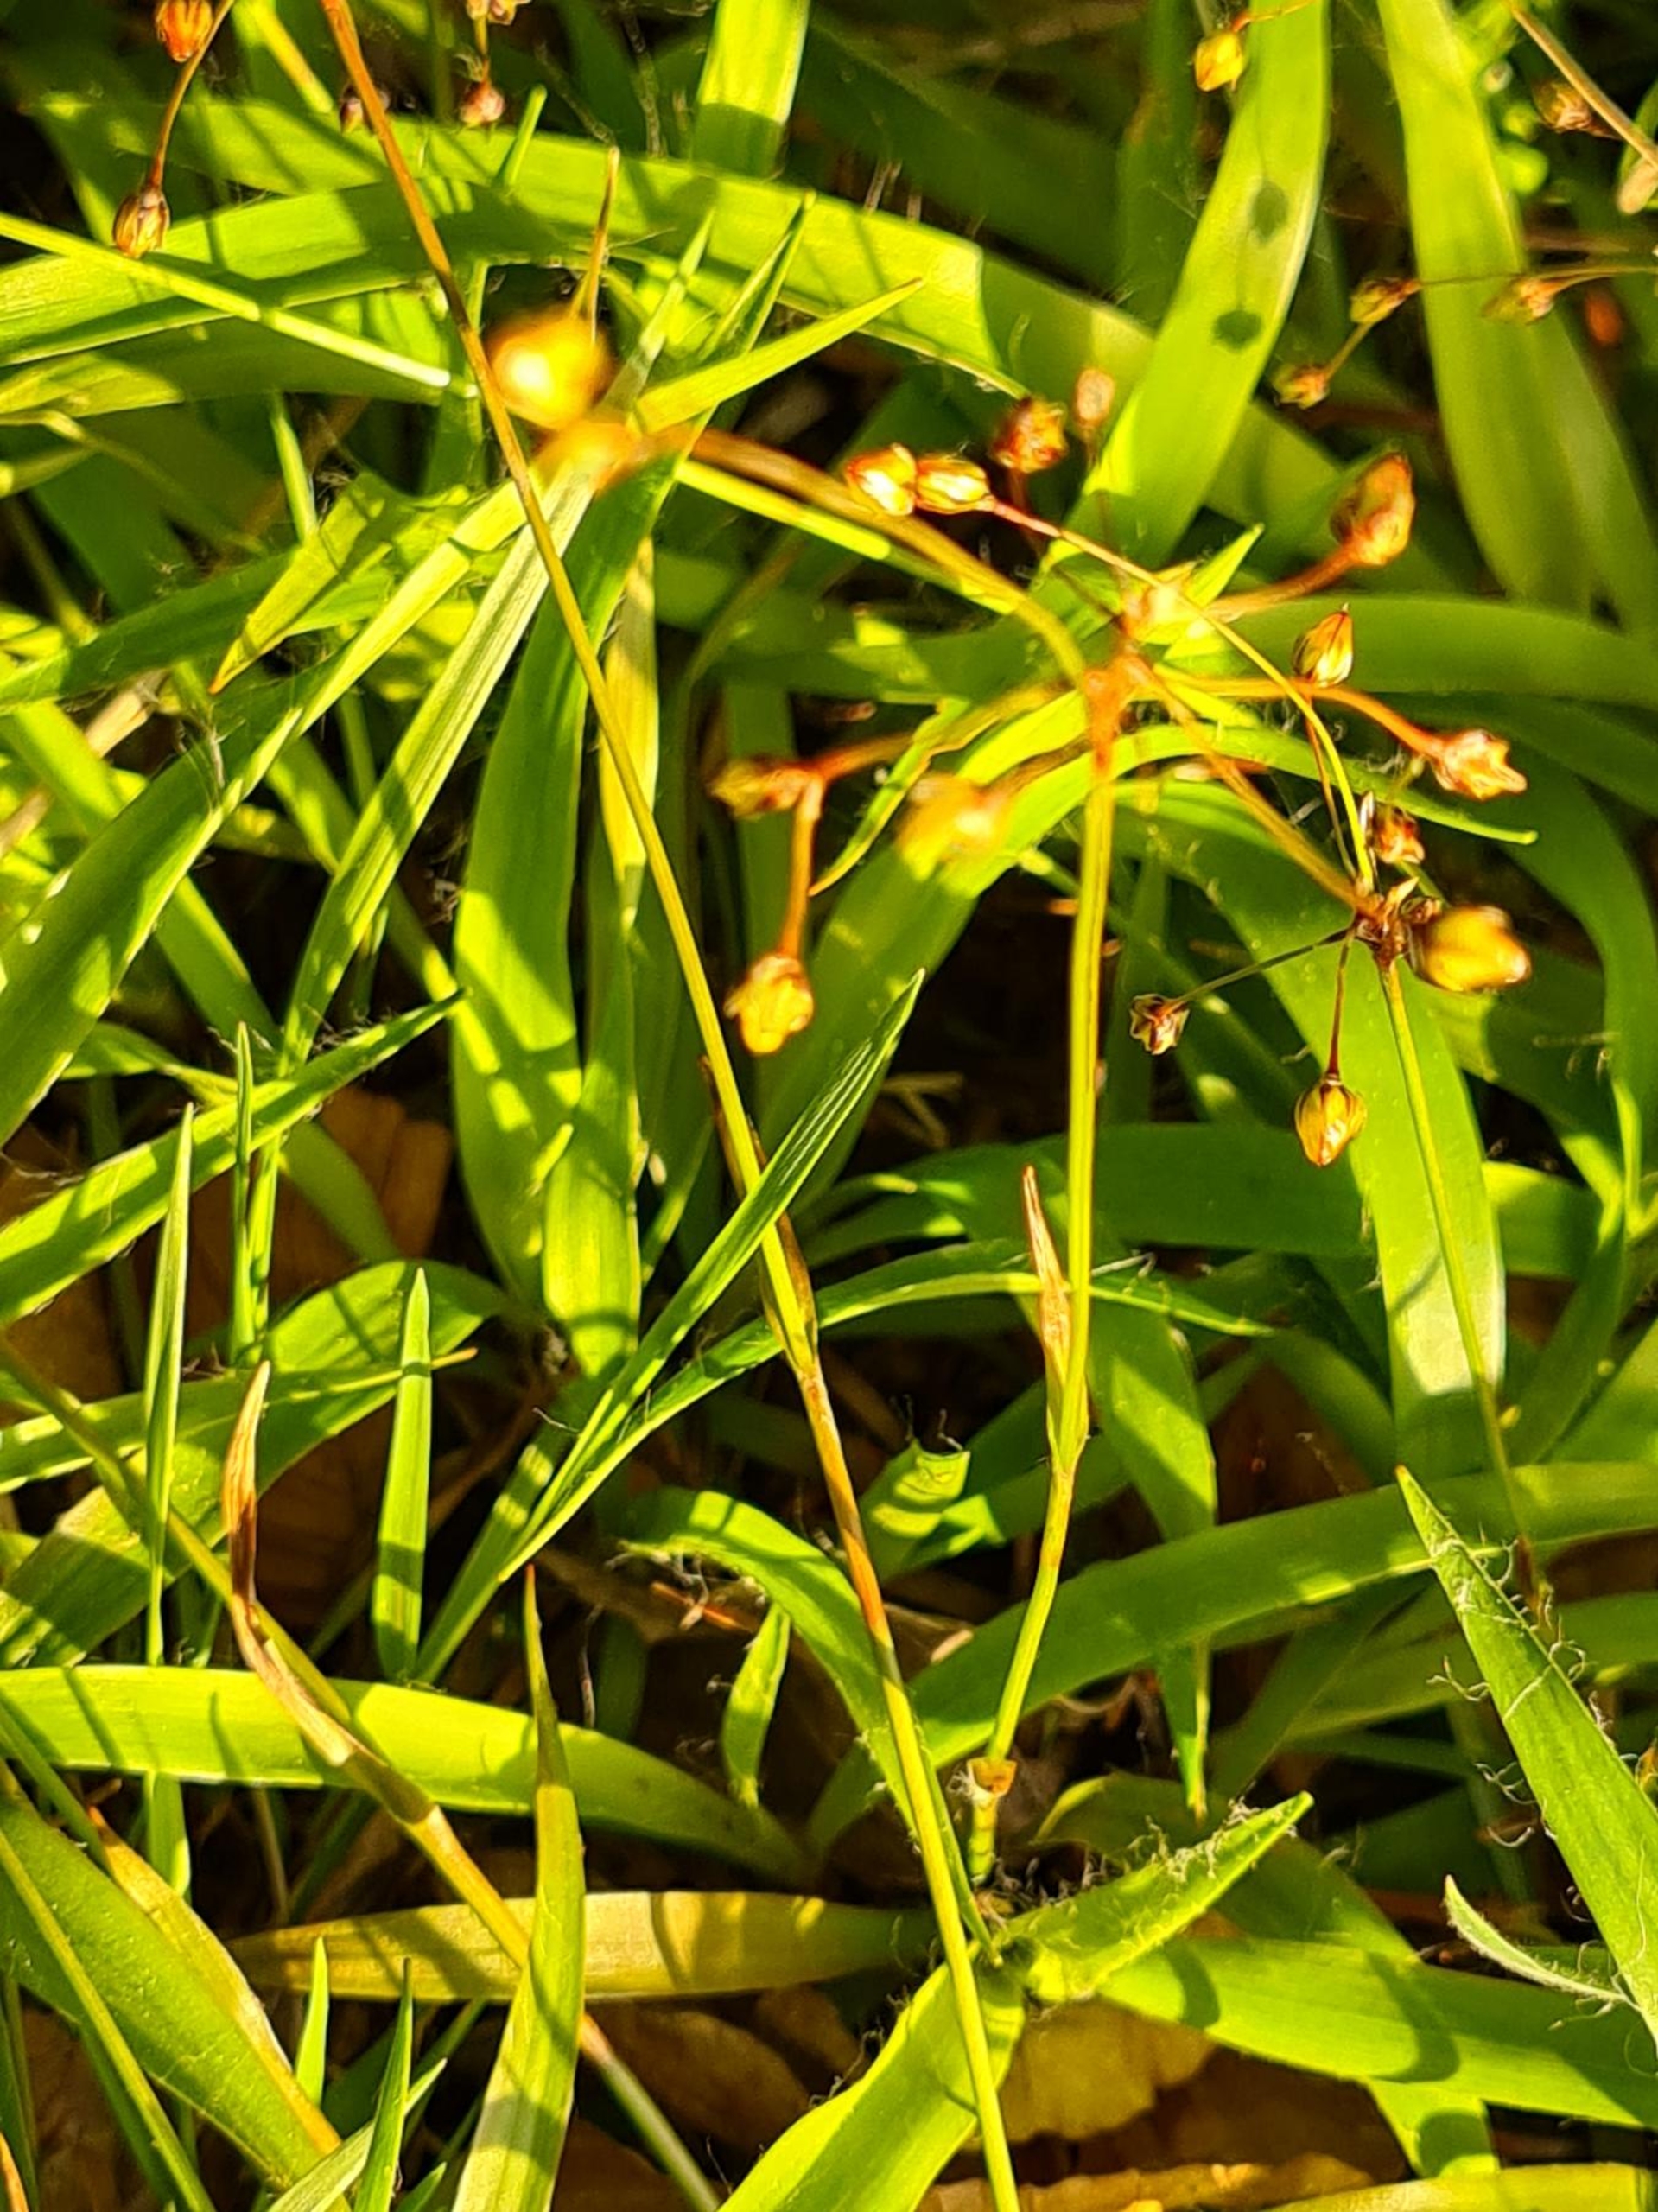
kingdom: Plantae
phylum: Tracheophyta
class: Liliopsida
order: Poales
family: Juncaceae
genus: Luzula
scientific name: Luzula pilosa
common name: Håret frytle
